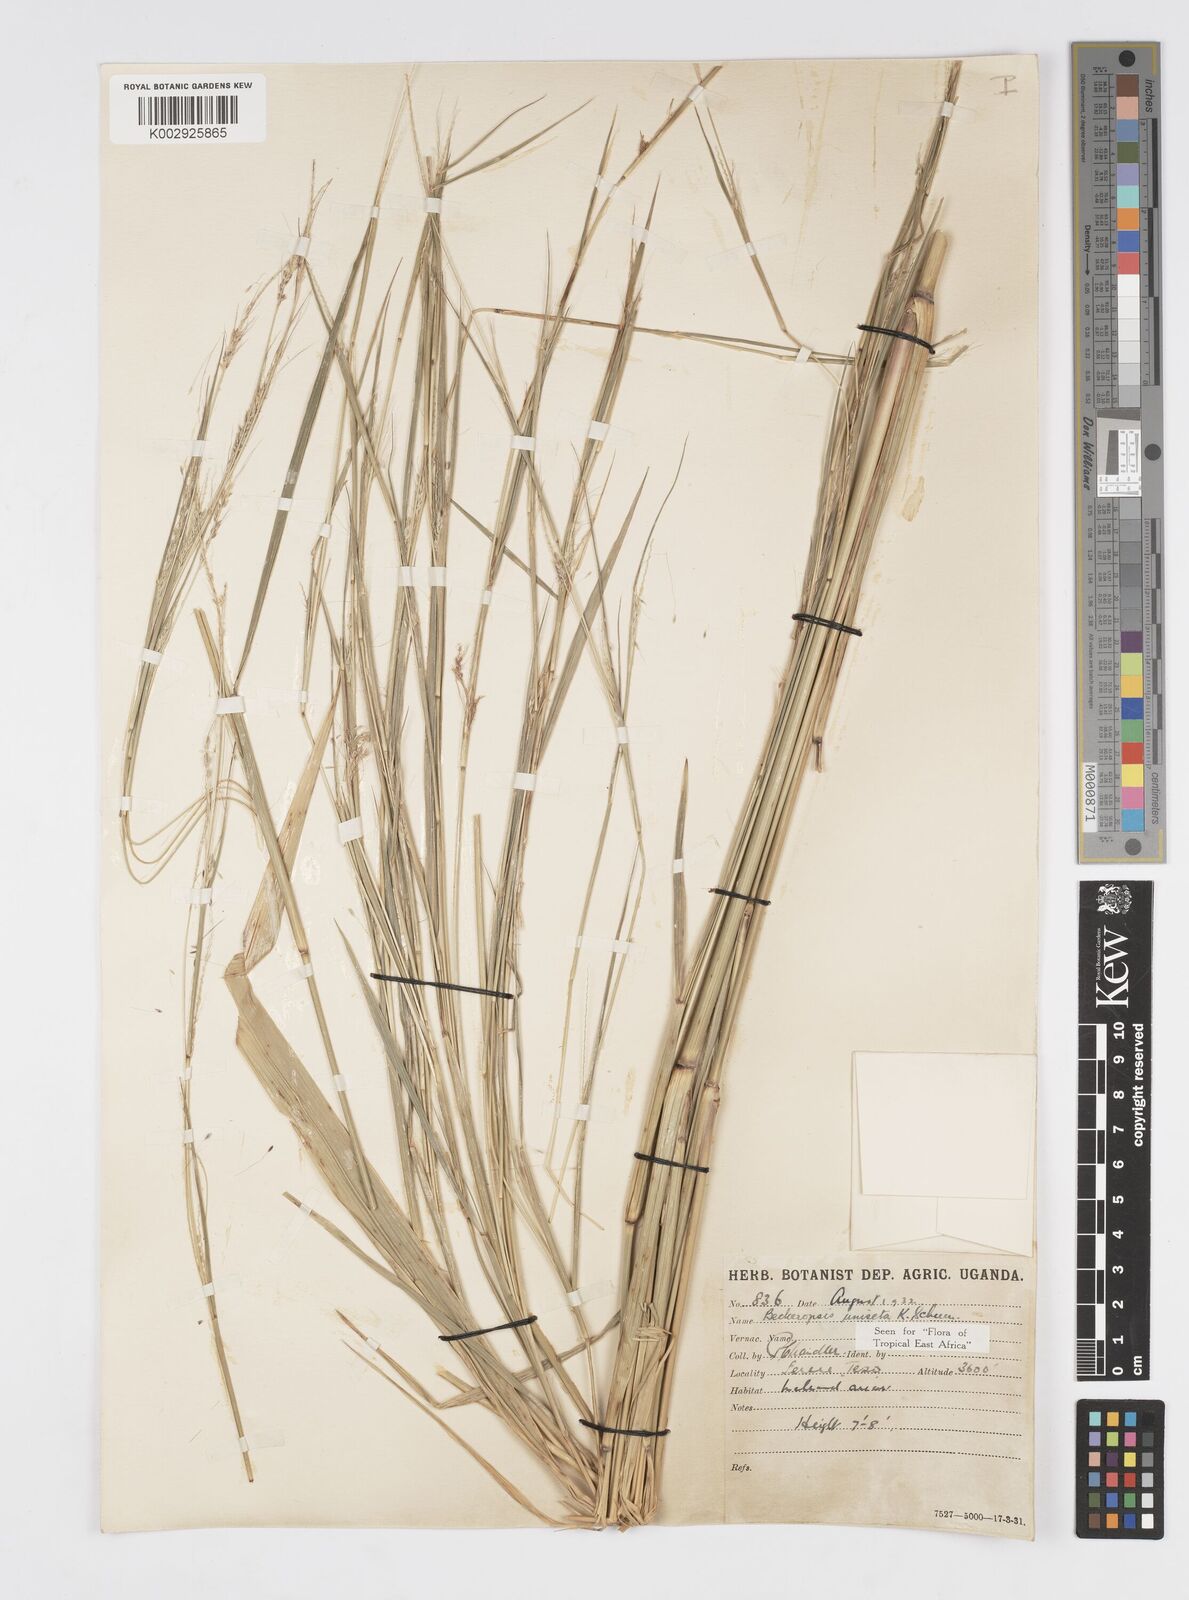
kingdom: Plantae
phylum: Tracheophyta
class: Liliopsida
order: Poales
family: Poaceae
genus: Cenchrus
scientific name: Cenchrus unisetus
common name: Natal grass
